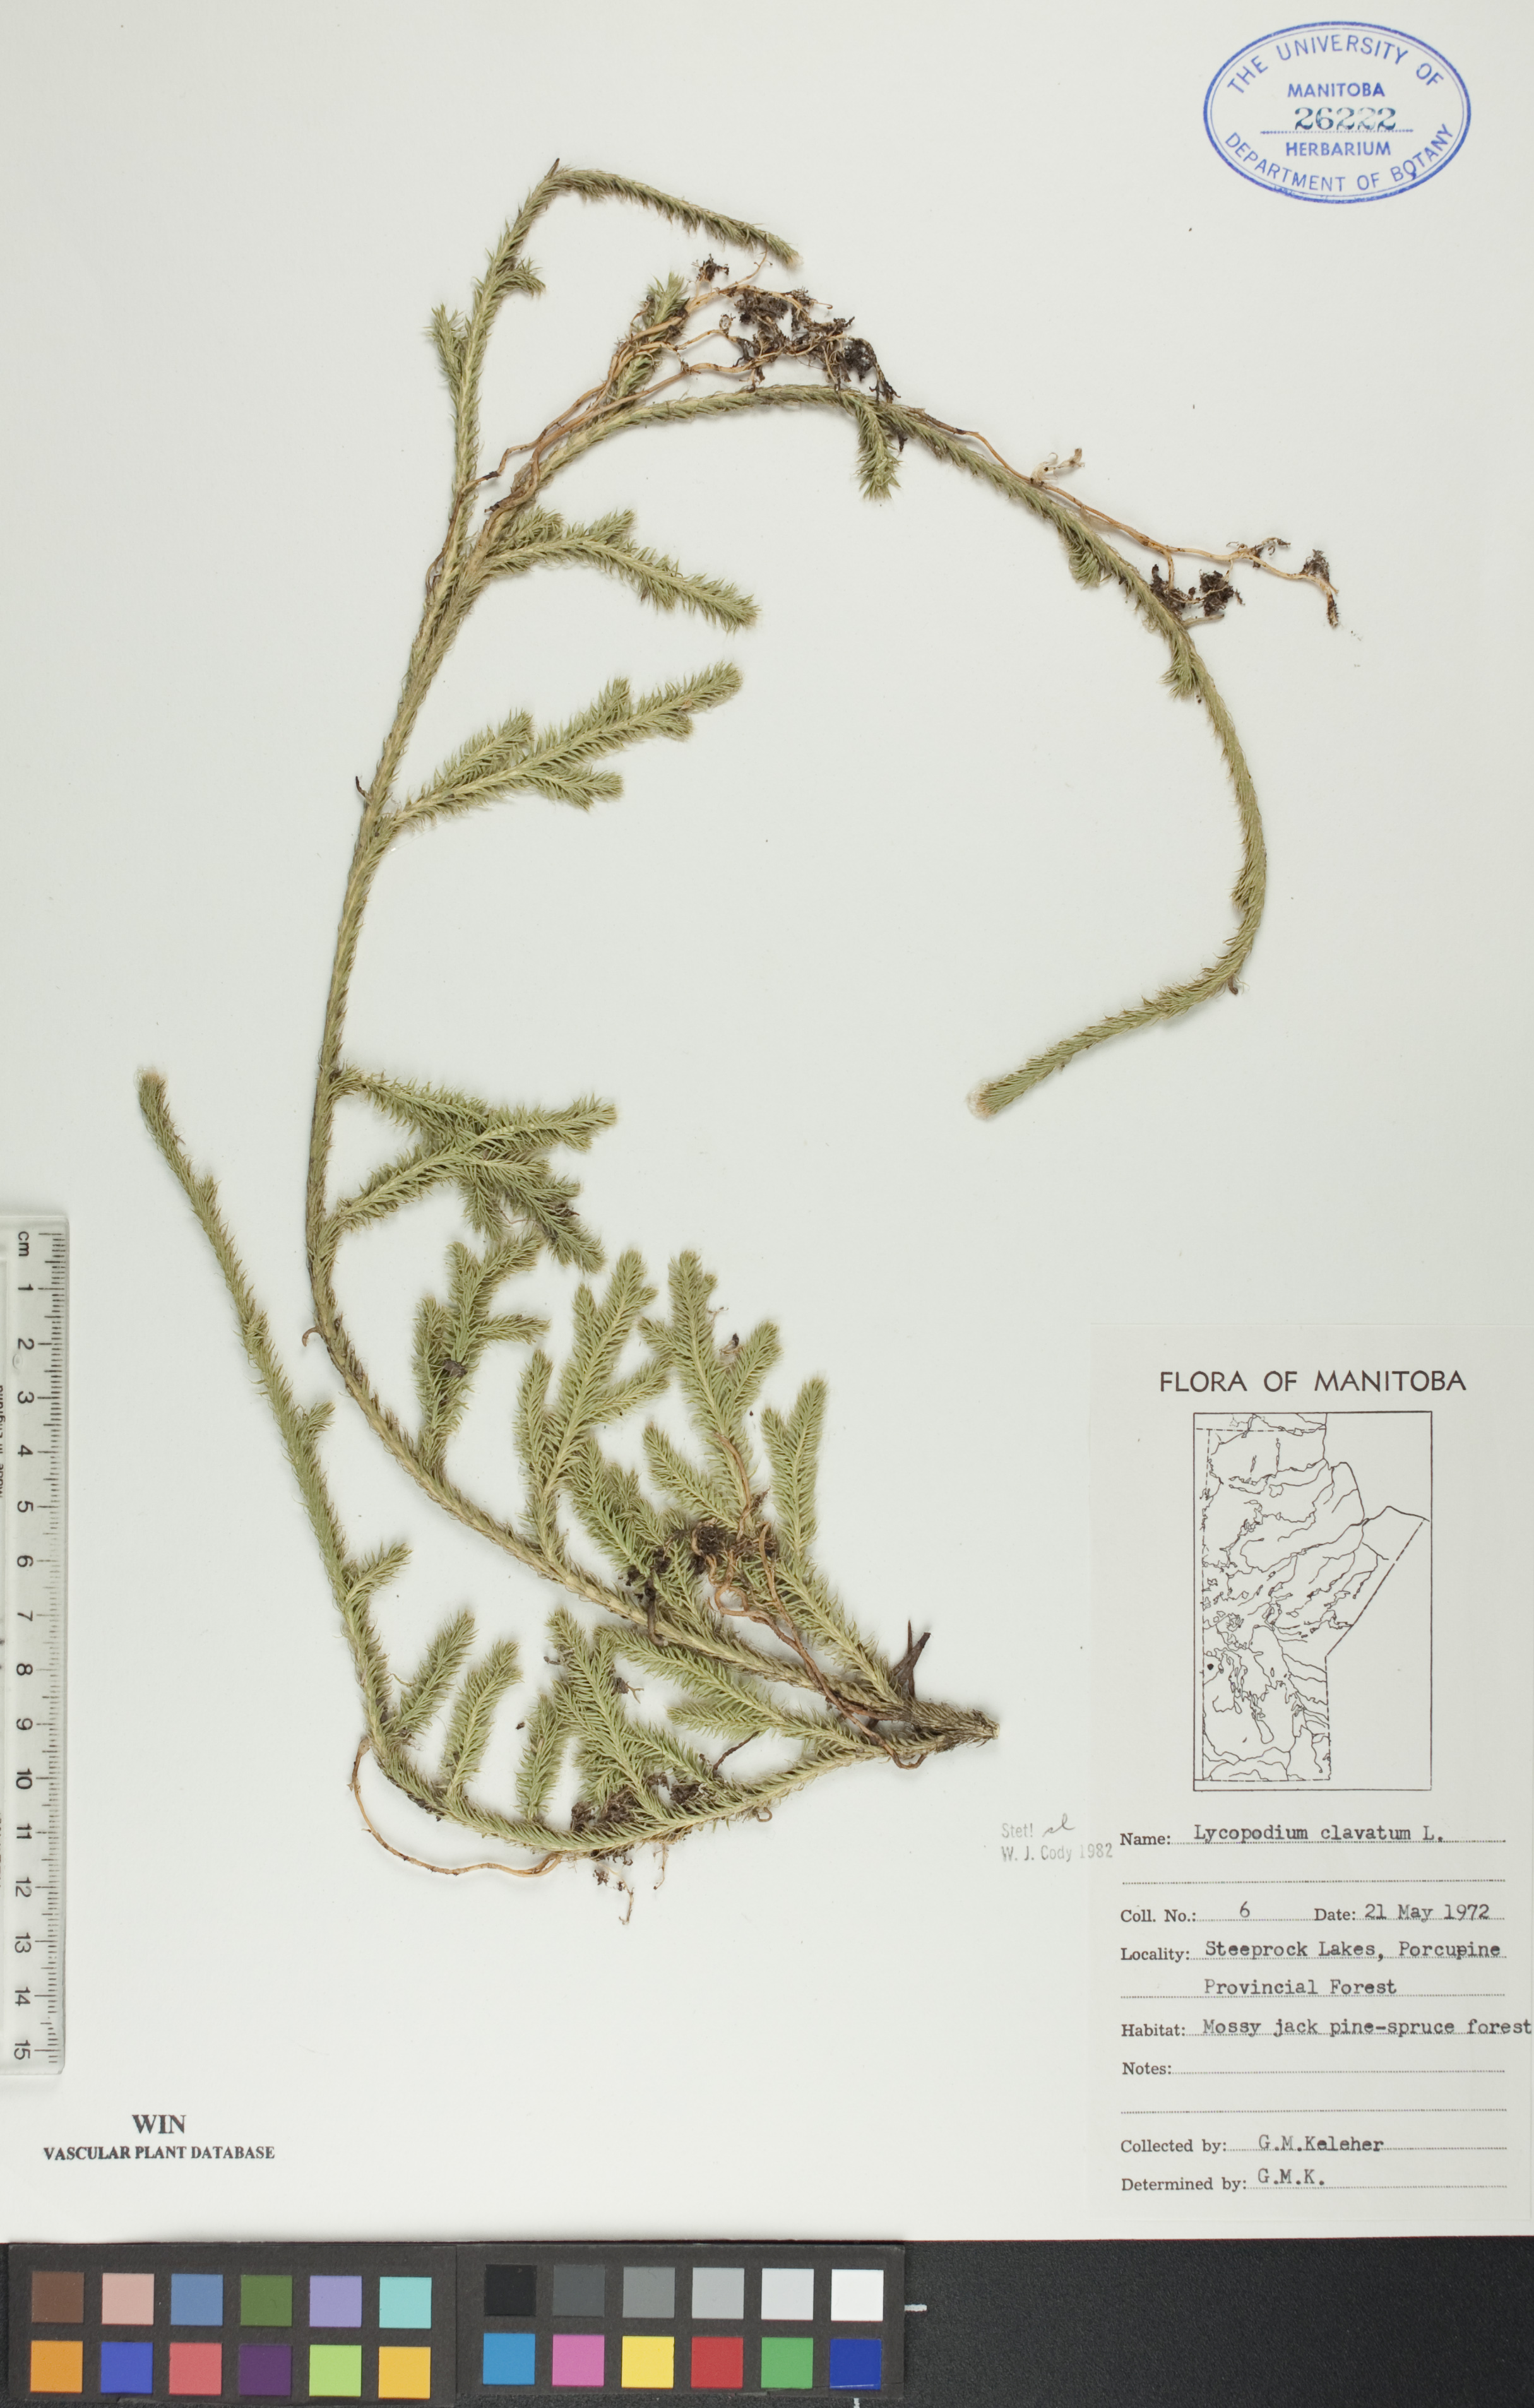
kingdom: Plantae
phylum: Tracheophyta
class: Lycopodiopsida
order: Lycopodiales
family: Lycopodiaceae
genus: Lycopodium
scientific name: Lycopodium clavatum
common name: Stag's-horn clubmoss
